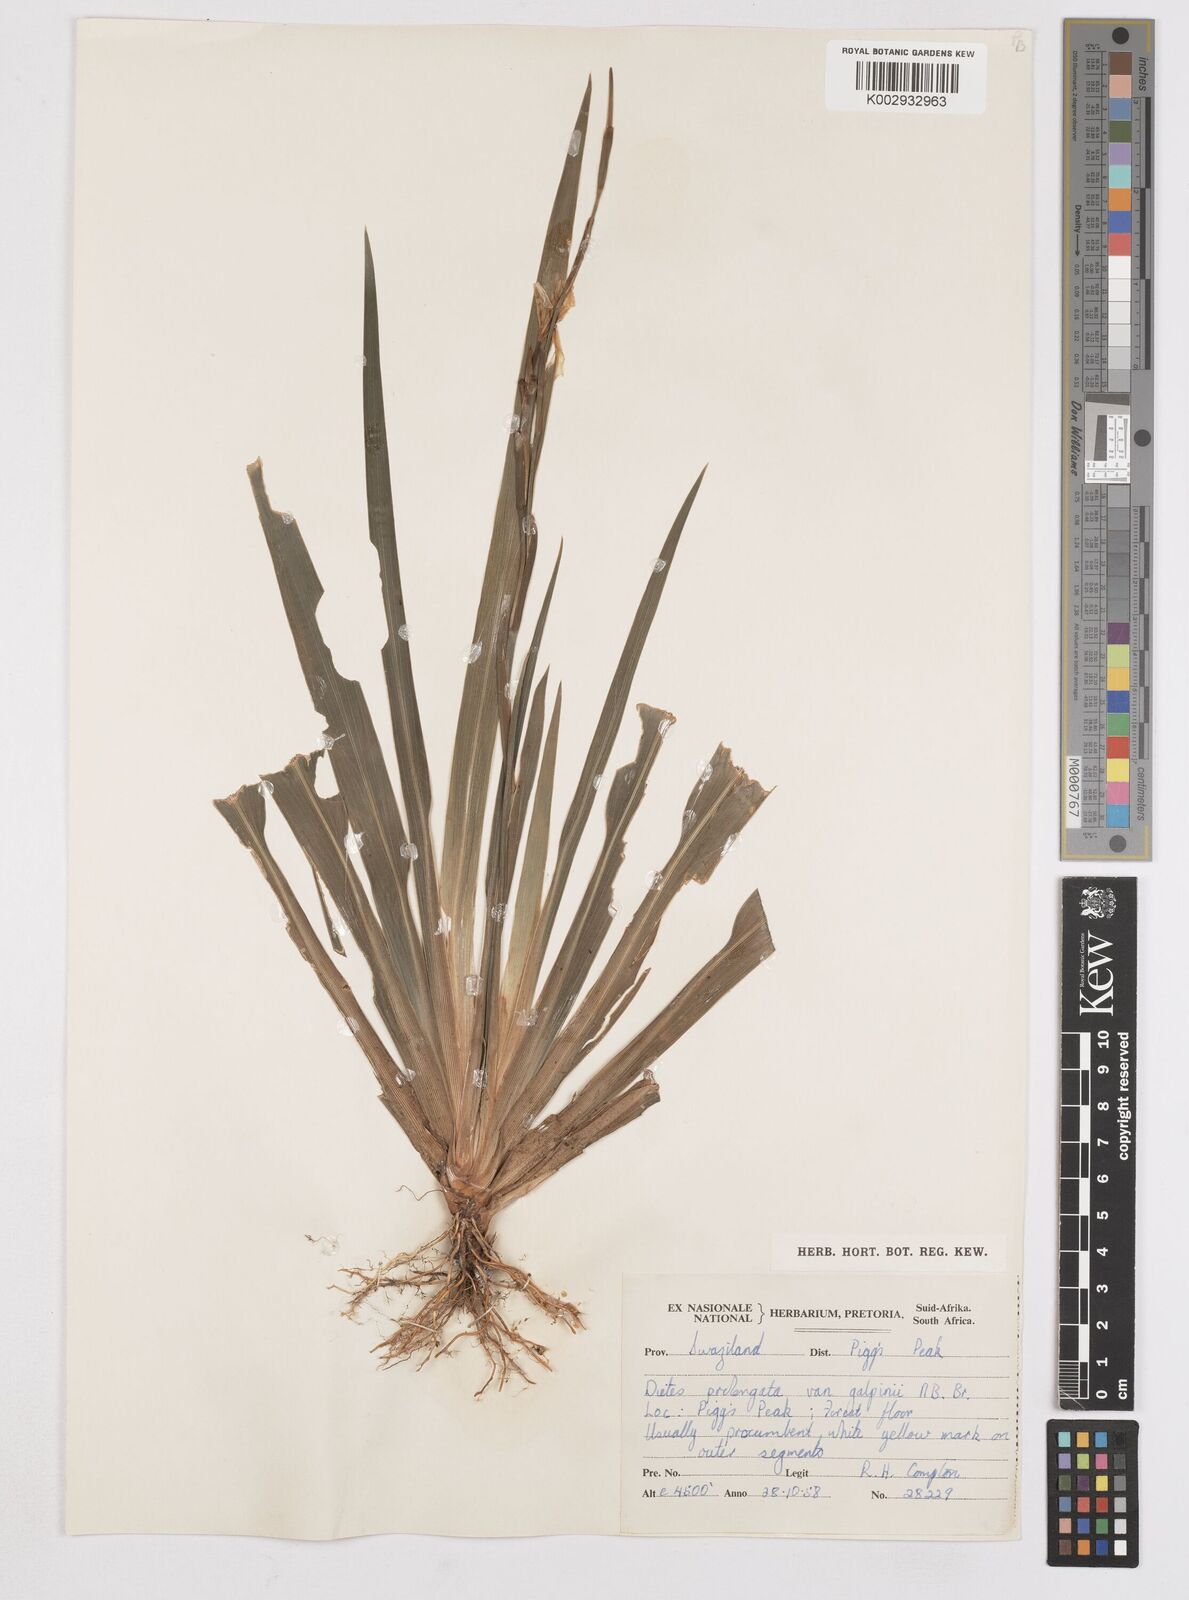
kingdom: Plantae
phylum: Tracheophyta
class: Liliopsida
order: Asparagales
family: Iridaceae
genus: Dietes
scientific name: Dietes iridioides
